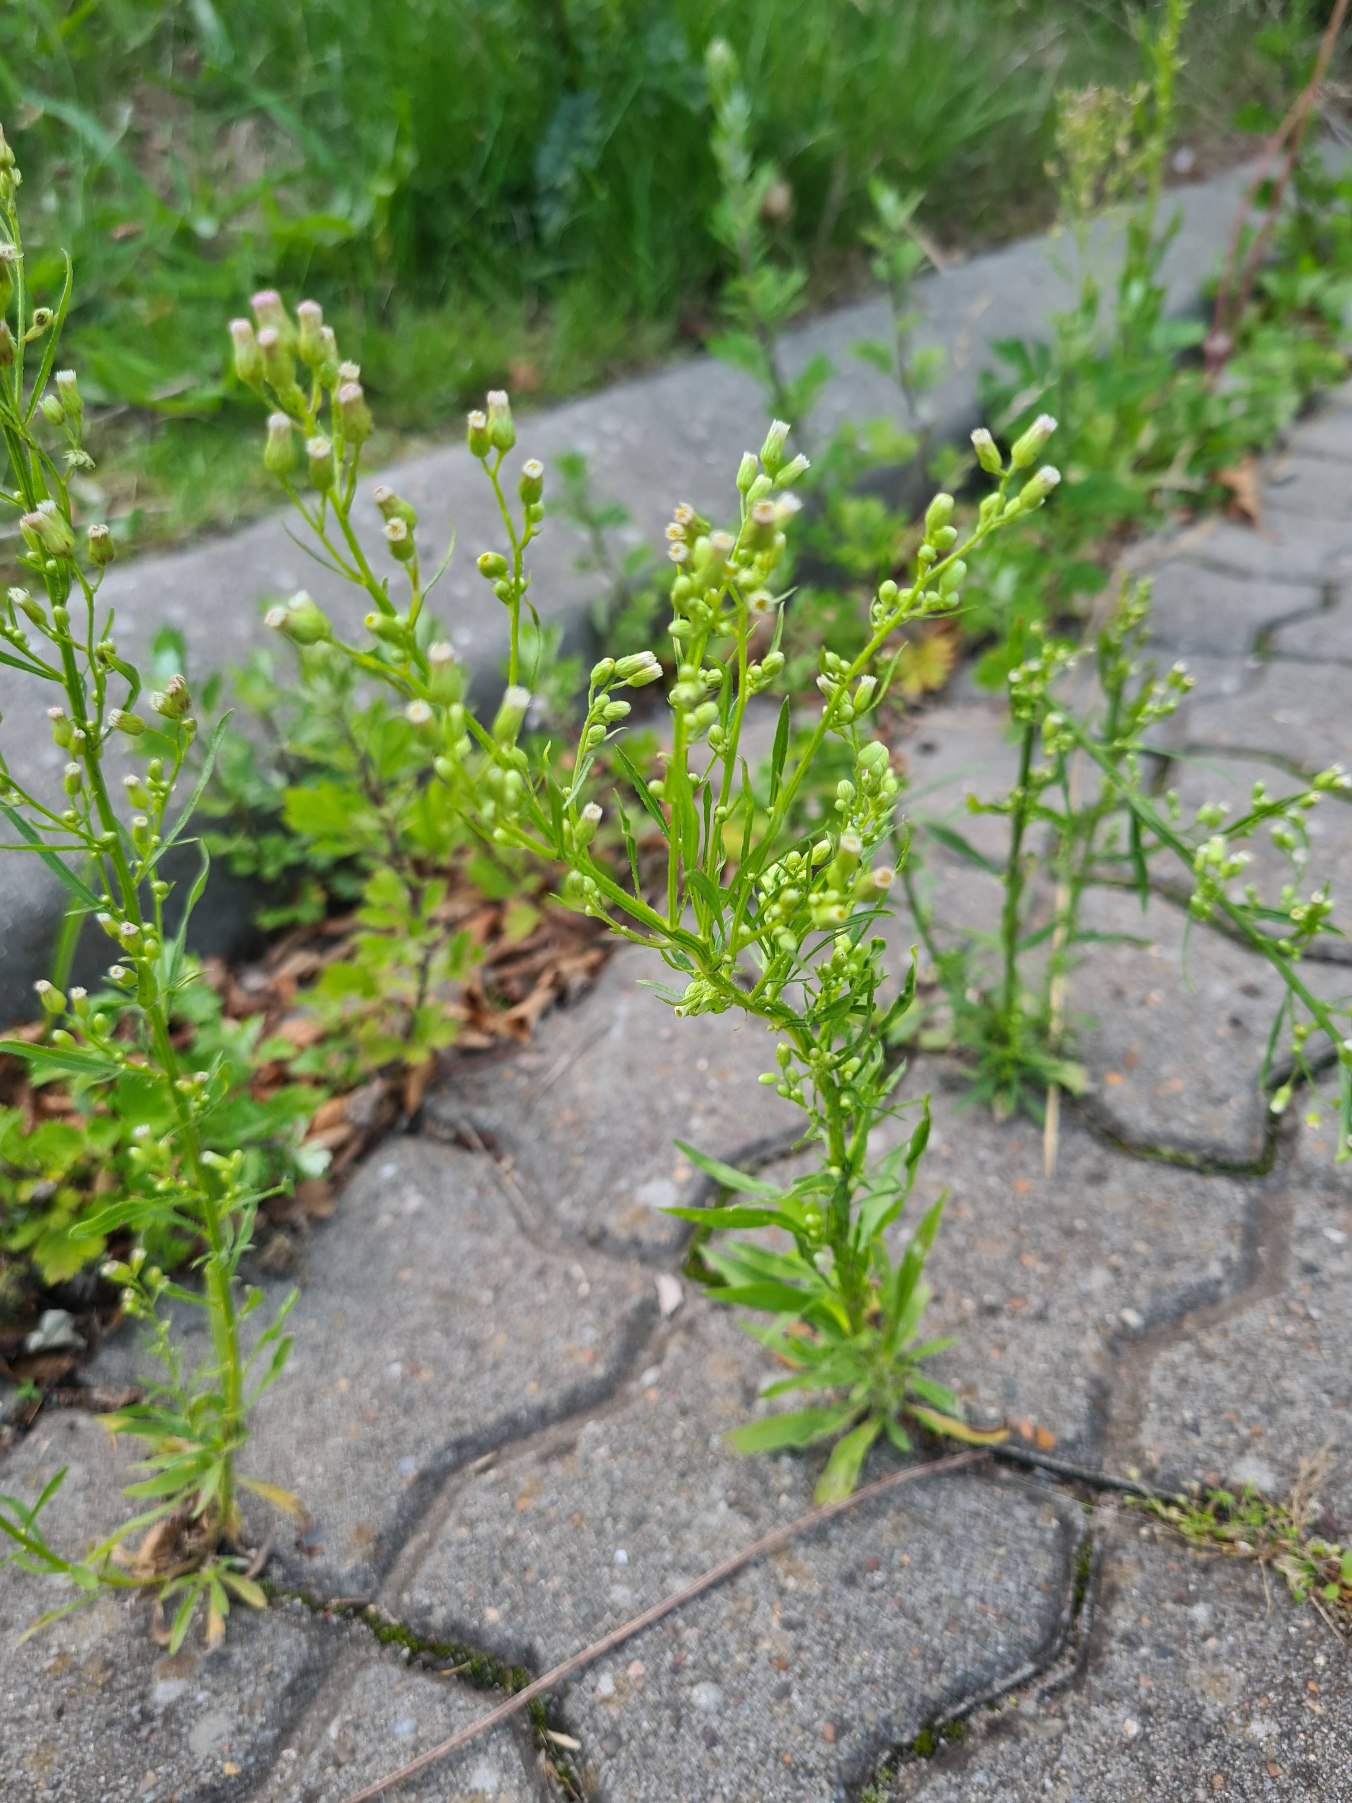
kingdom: Plantae
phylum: Tracheophyta
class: Magnoliopsida
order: Asterales
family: Asteraceae
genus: Erigeron
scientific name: Erigeron canadensis
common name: Kanadisk bakkestjerne
